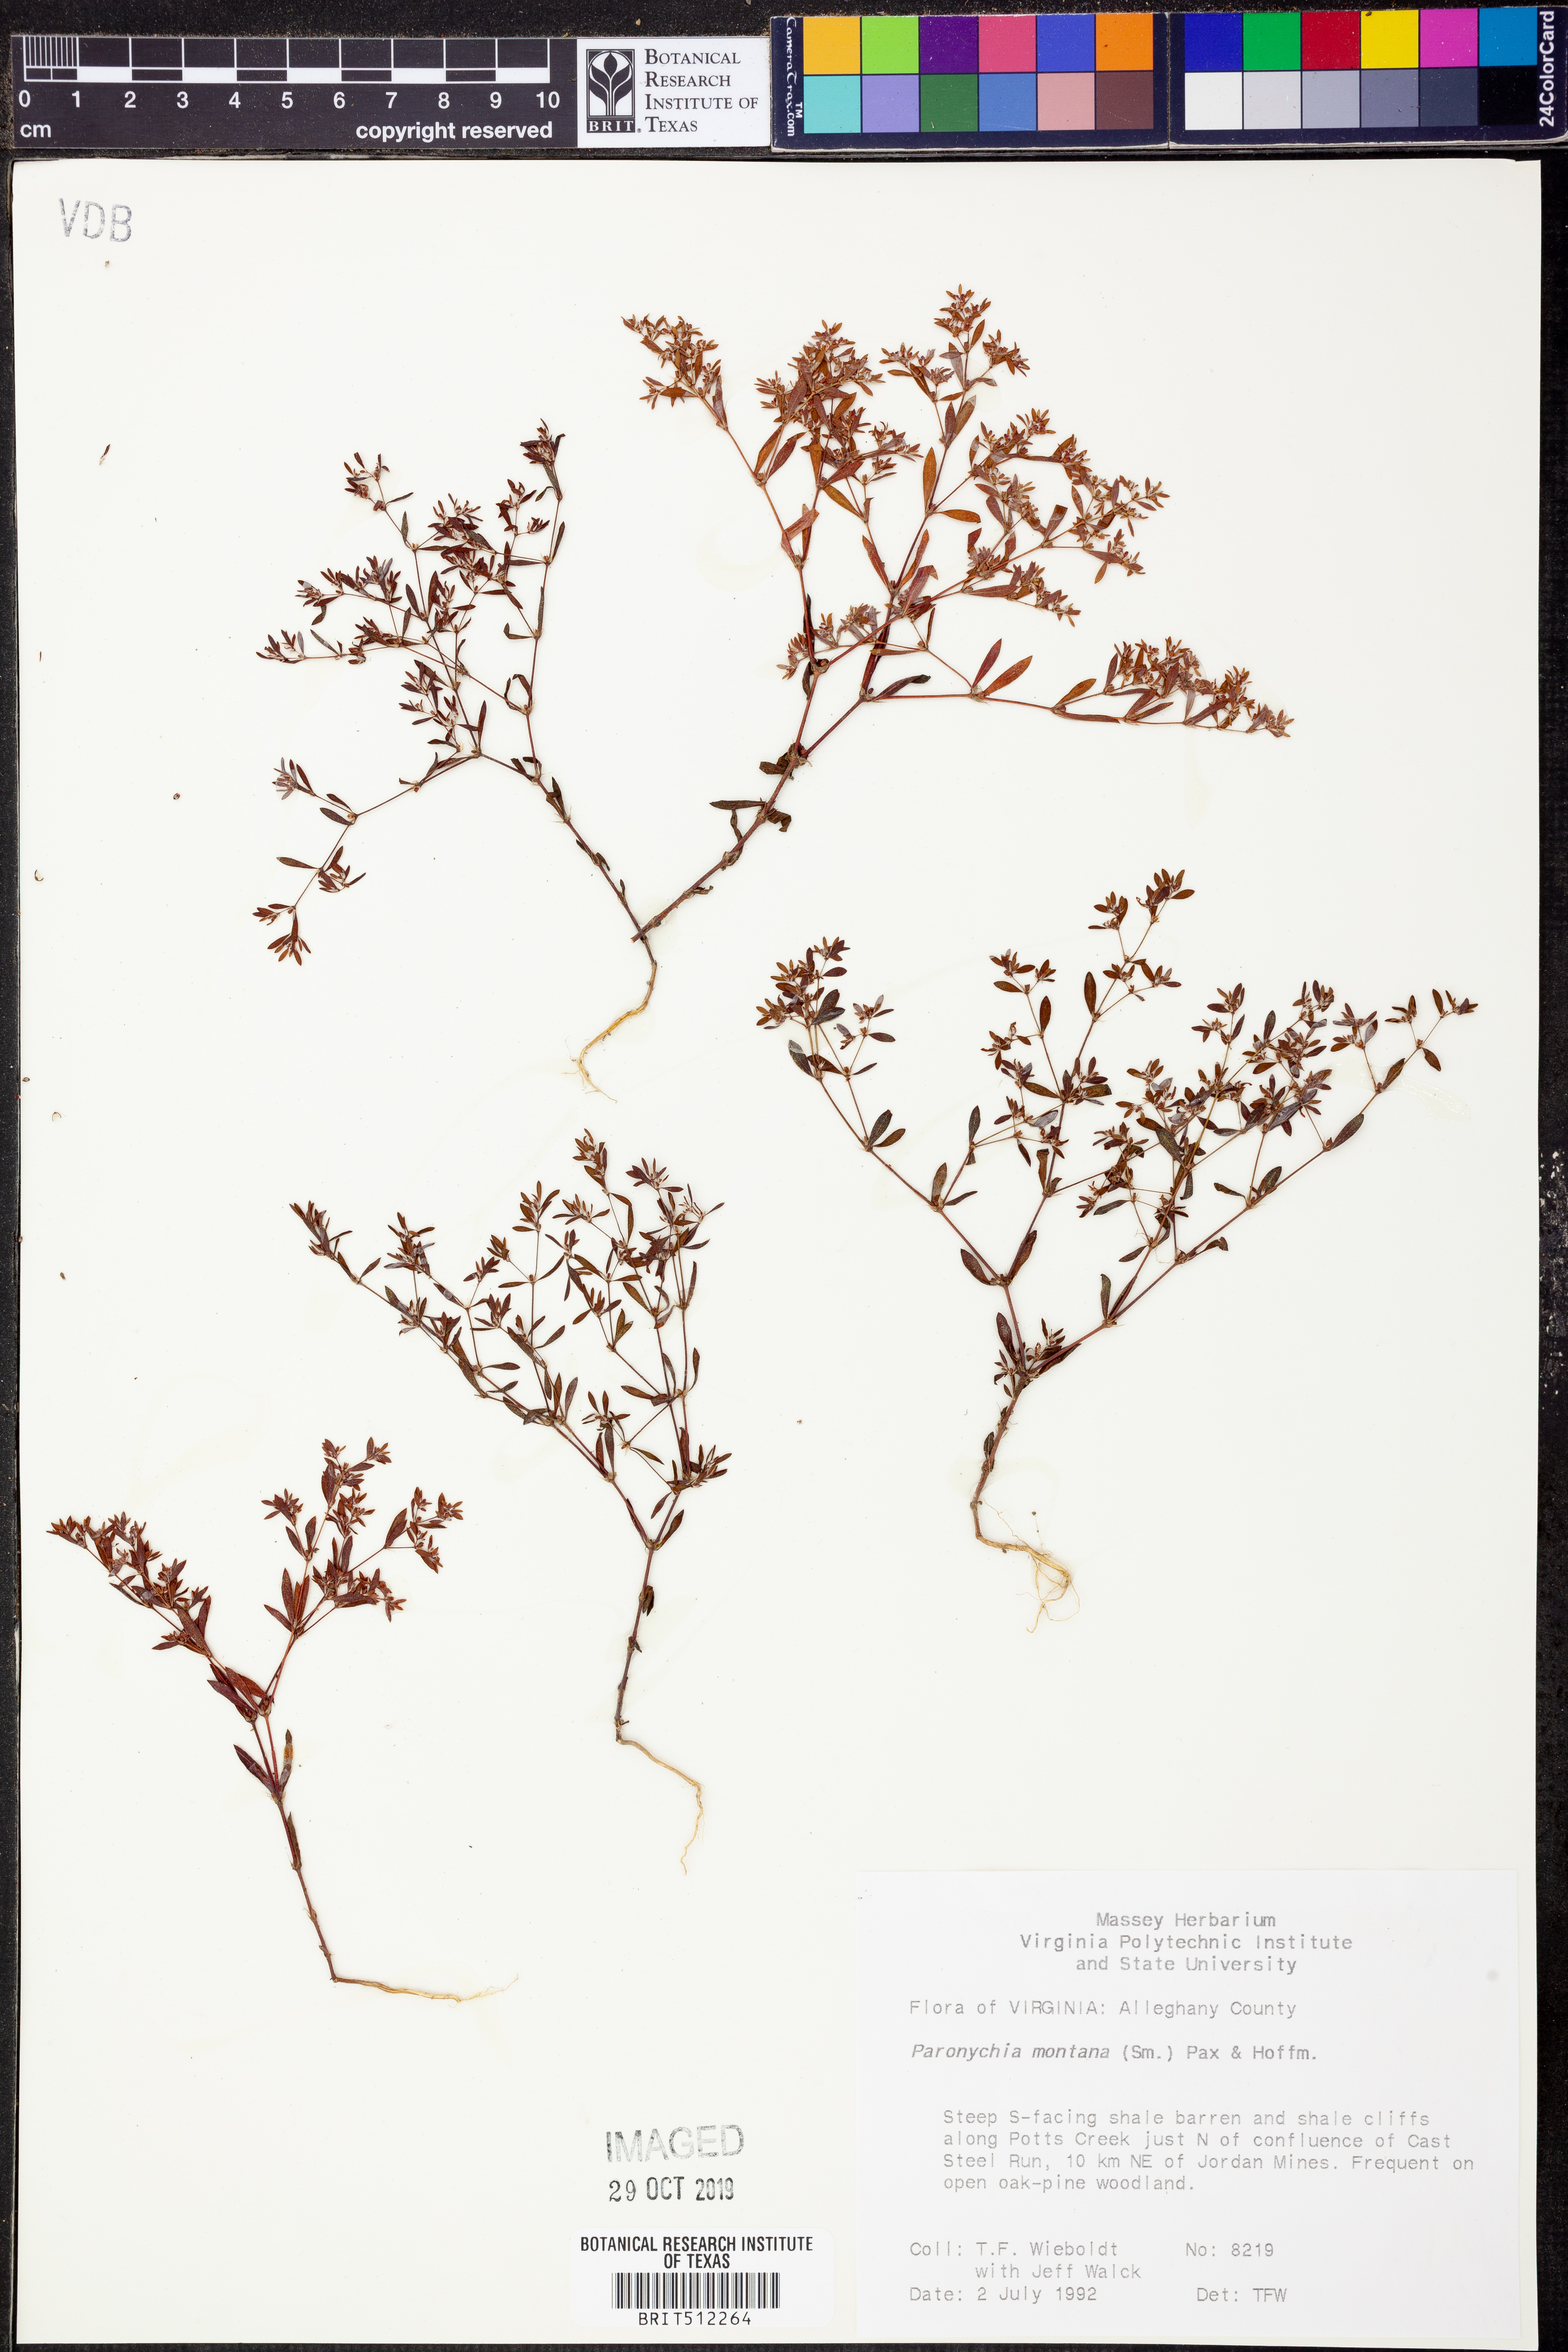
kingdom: Plantae
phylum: Tracheophyta
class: Magnoliopsida
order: Caryophyllales
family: Caryophyllaceae
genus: Paronychia
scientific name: Paronychia fastigiata
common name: Branching forked whitlow-wort
